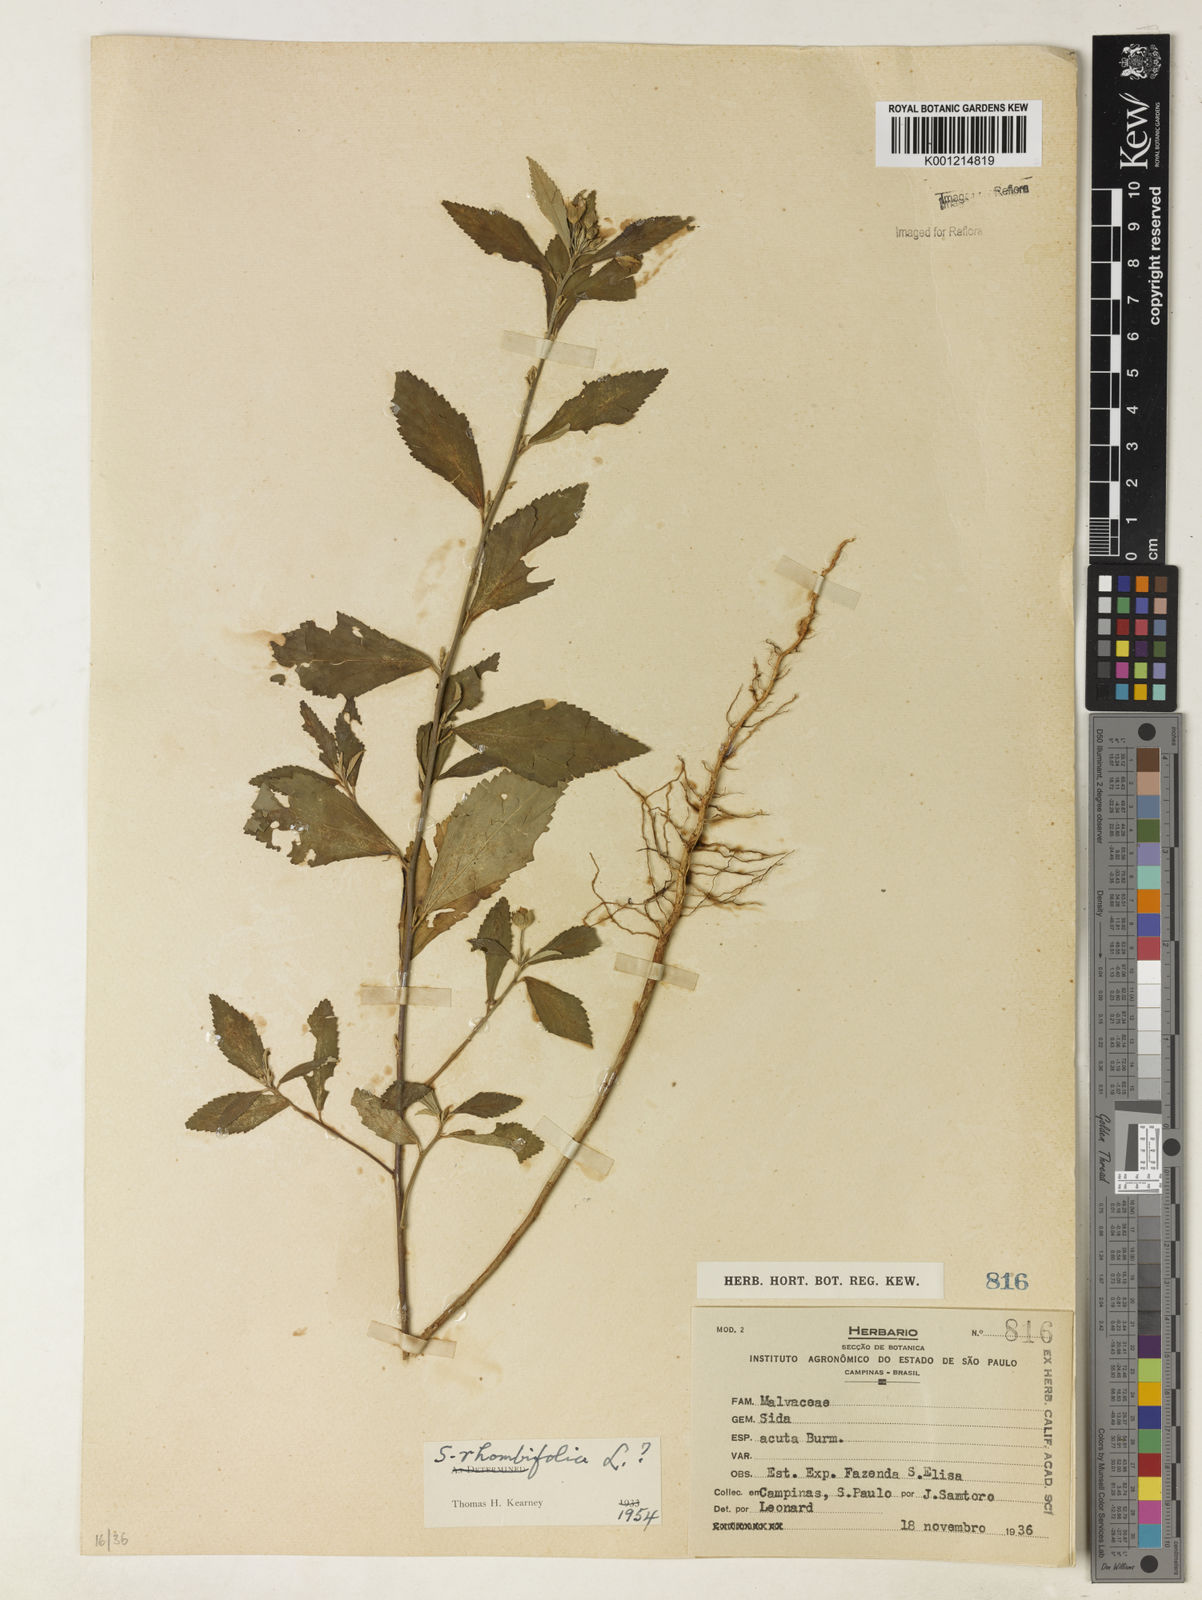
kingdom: Plantae
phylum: Tracheophyta
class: Magnoliopsida
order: Malvales
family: Malvaceae
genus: Sida
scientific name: Sida rhombifolia
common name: Queensland-hemp
